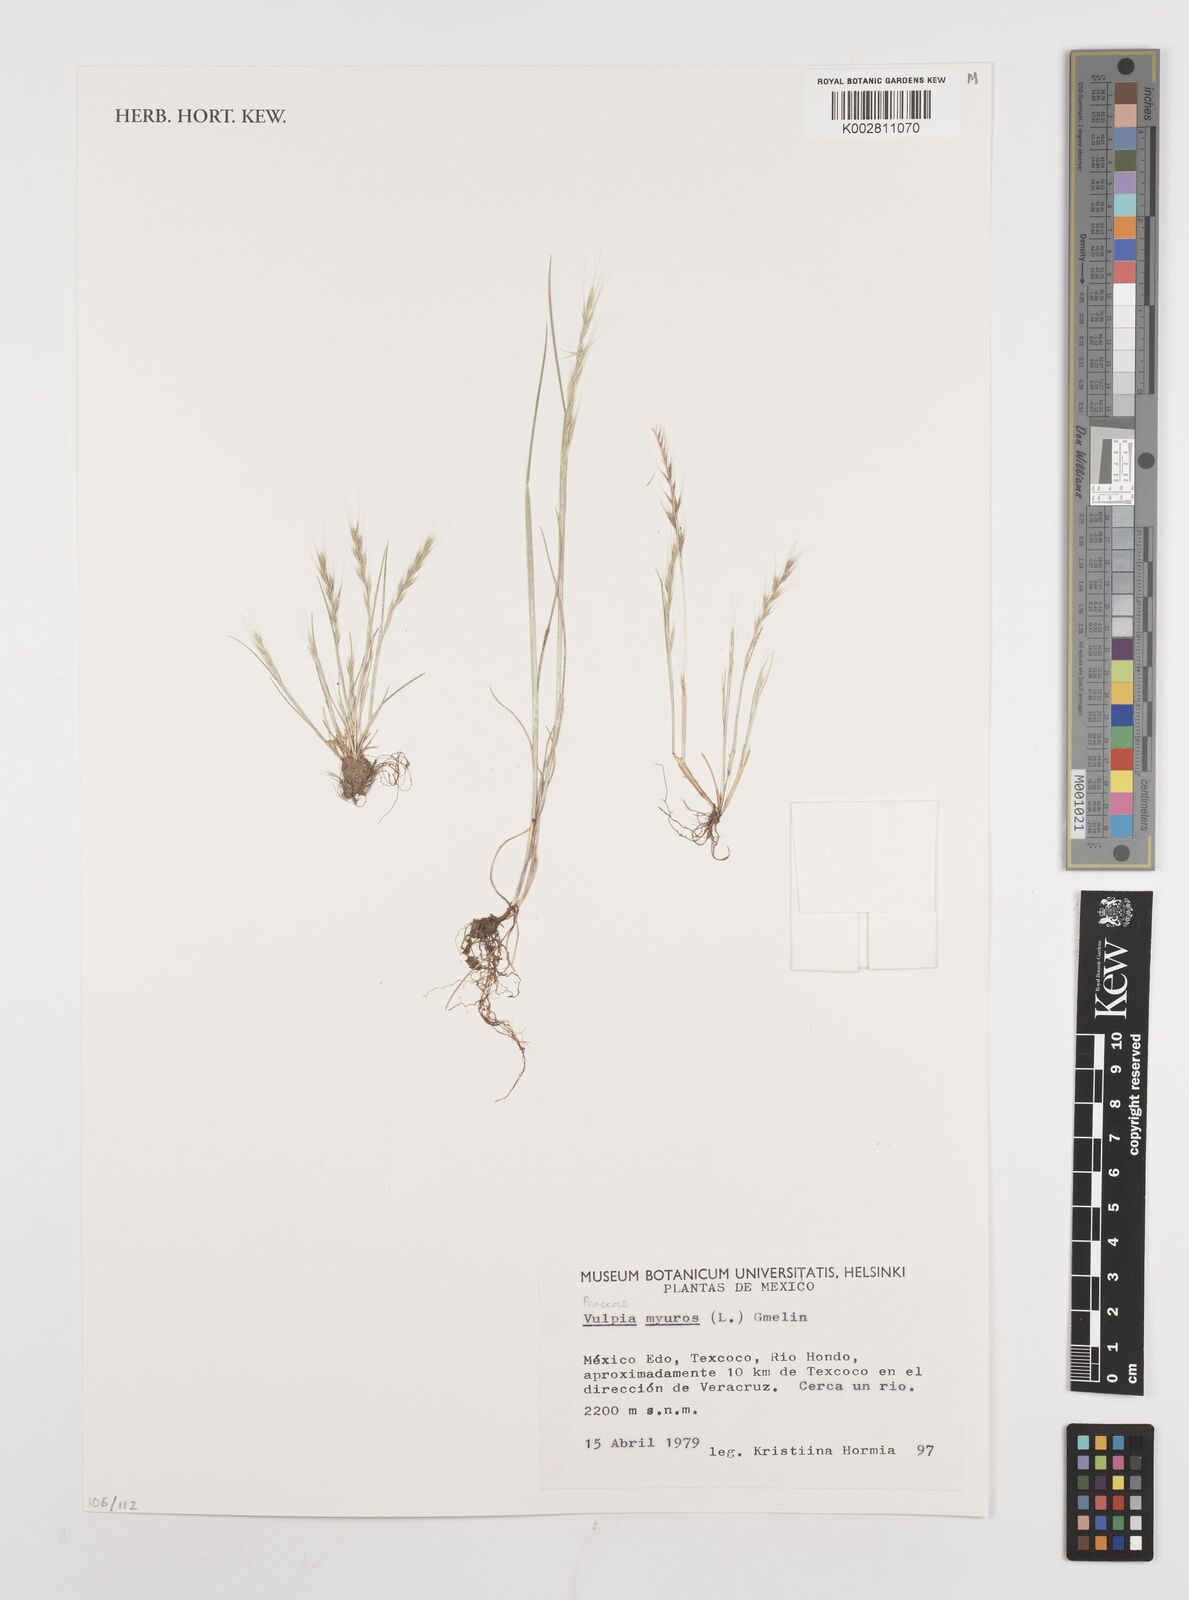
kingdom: Plantae
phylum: Tracheophyta
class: Liliopsida
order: Poales
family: Poaceae
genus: Festuca
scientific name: Festuca myuros
